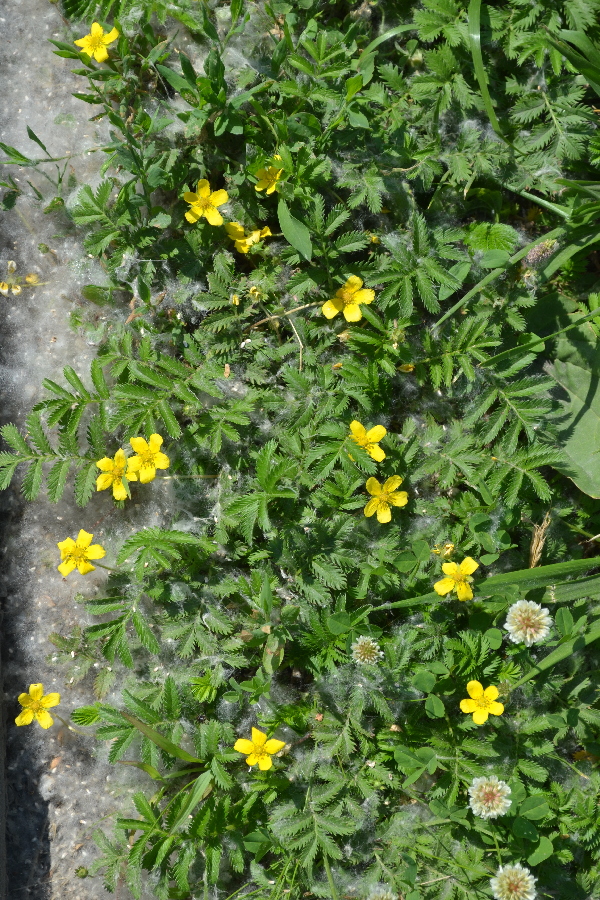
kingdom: Plantae
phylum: Tracheophyta
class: Magnoliopsida
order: Rosales
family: Rosaceae
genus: Argentina
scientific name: Argentina anserina
